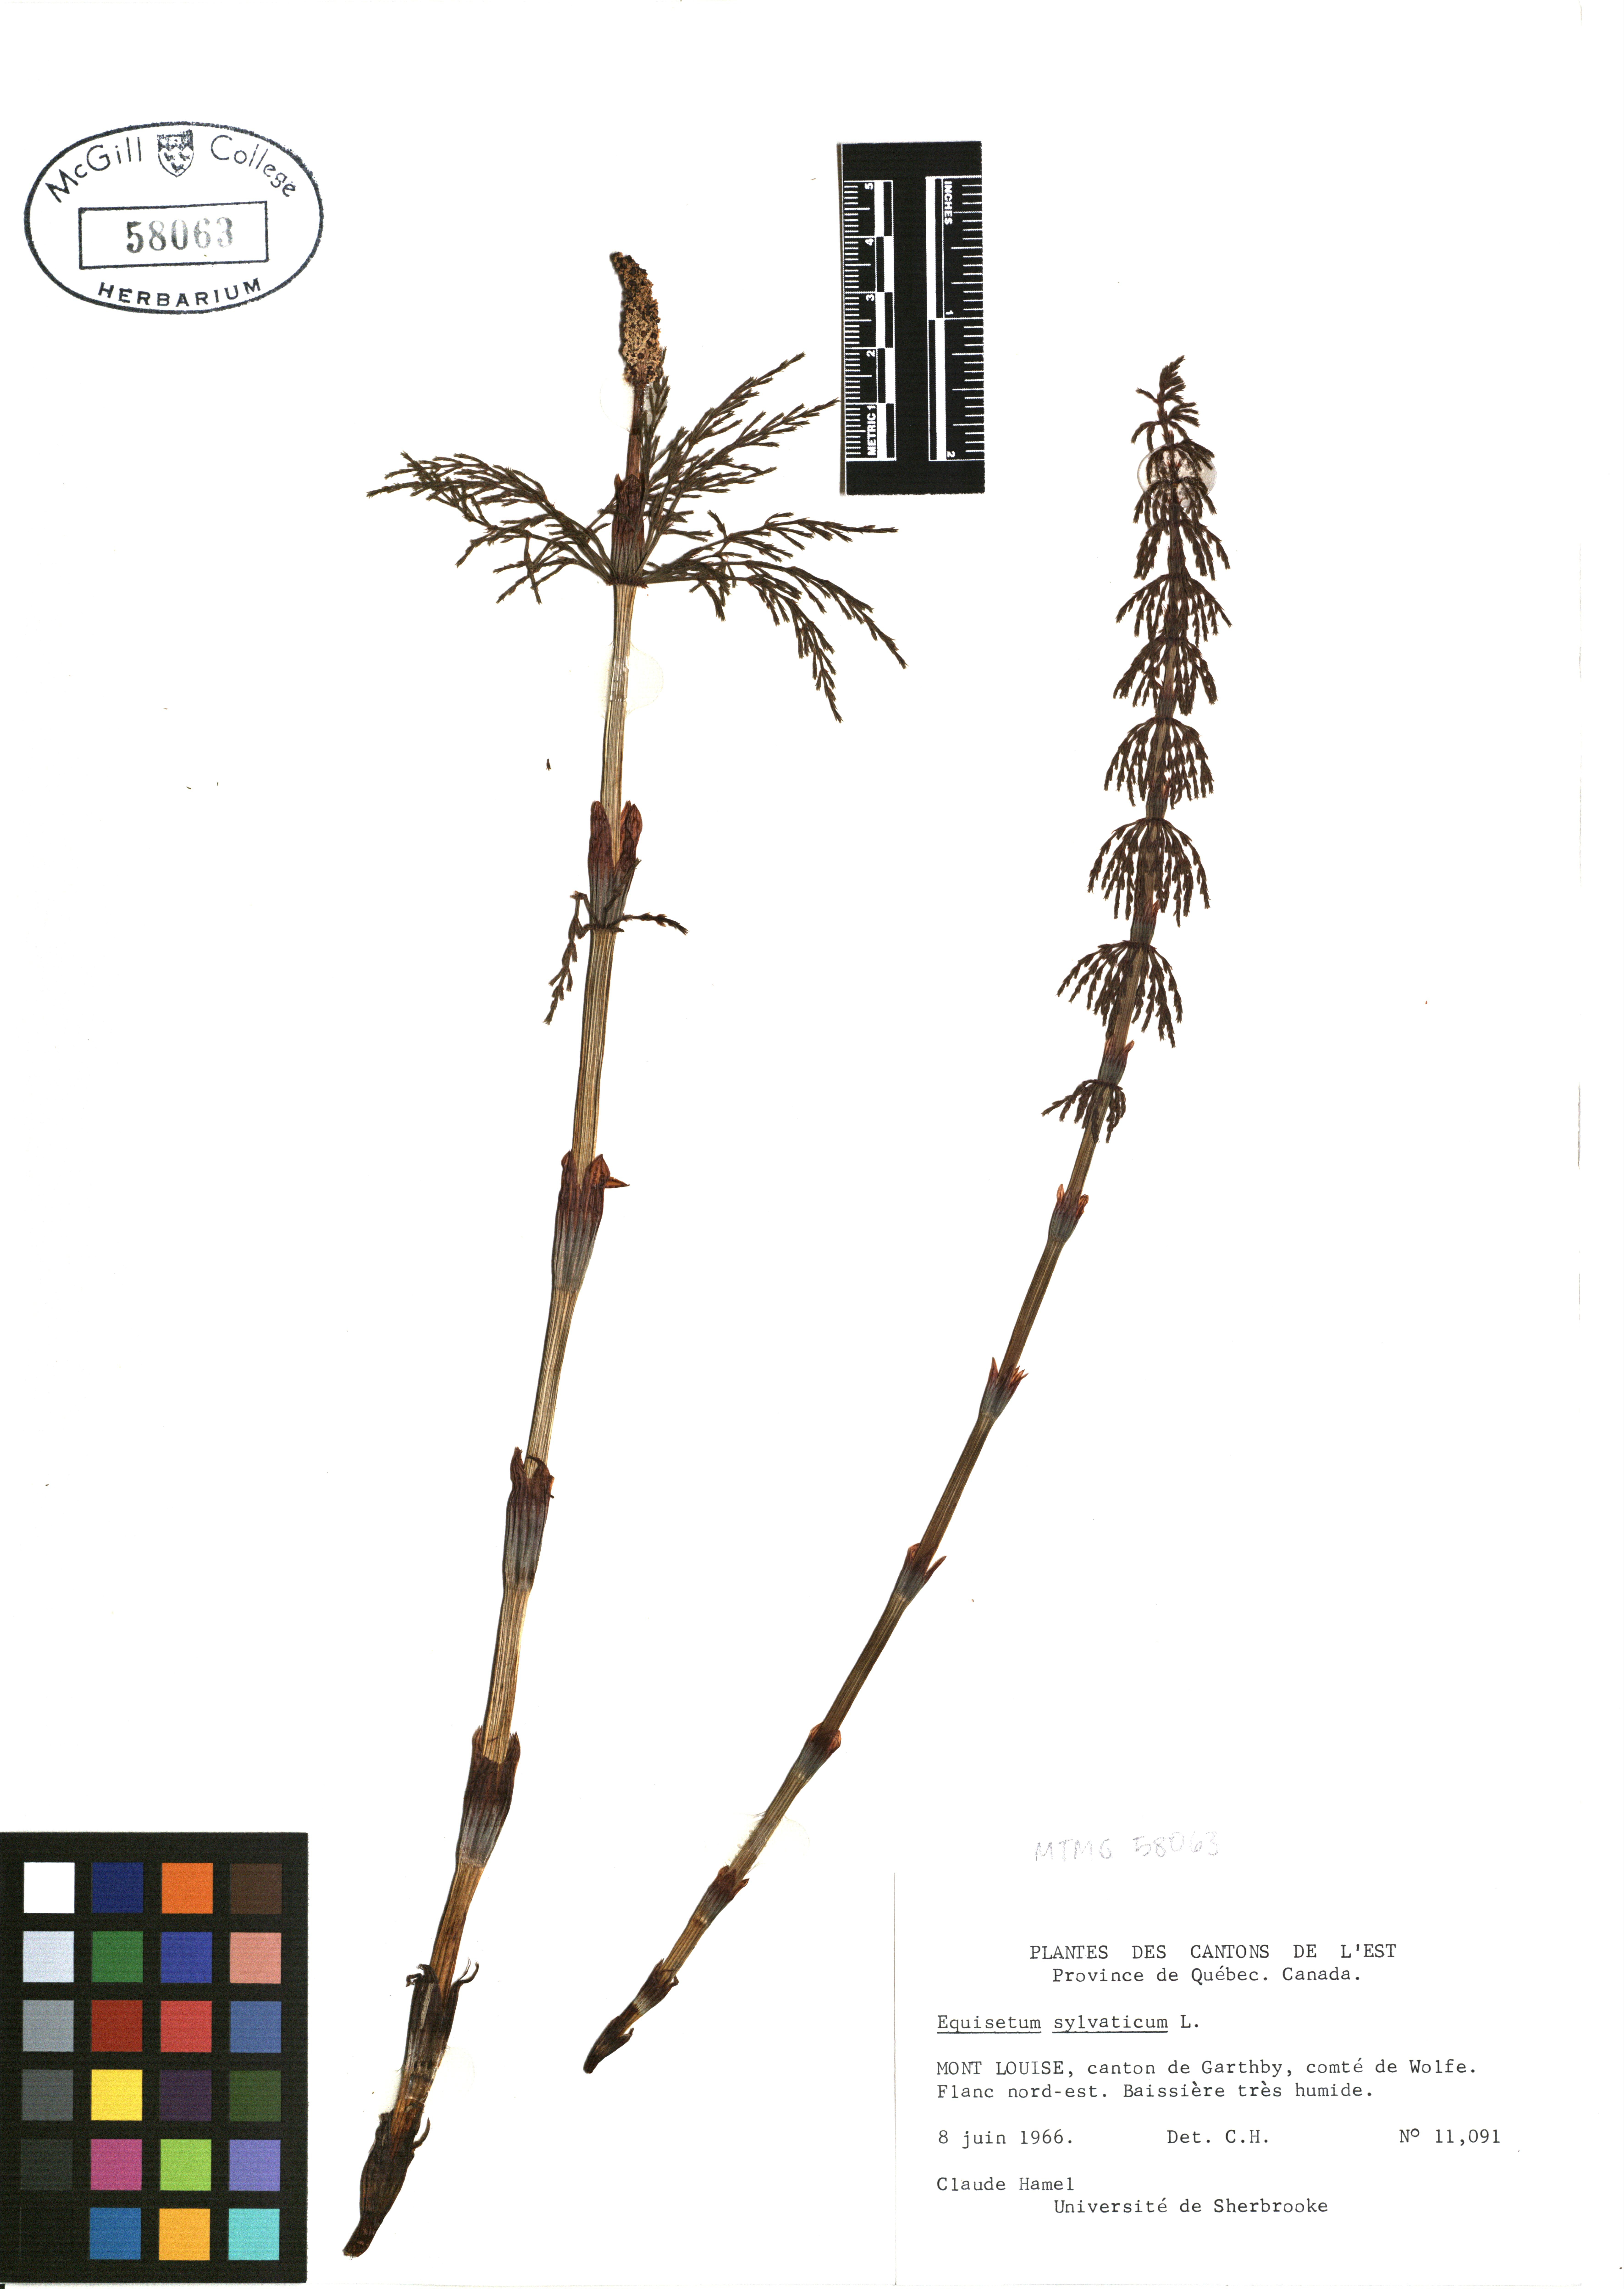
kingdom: Plantae
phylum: Tracheophyta
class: Polypodiopsida
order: Equisetales
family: Equisetaceae
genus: Equisetum
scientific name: Equisetum sylvaticum
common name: Wood horsetail
